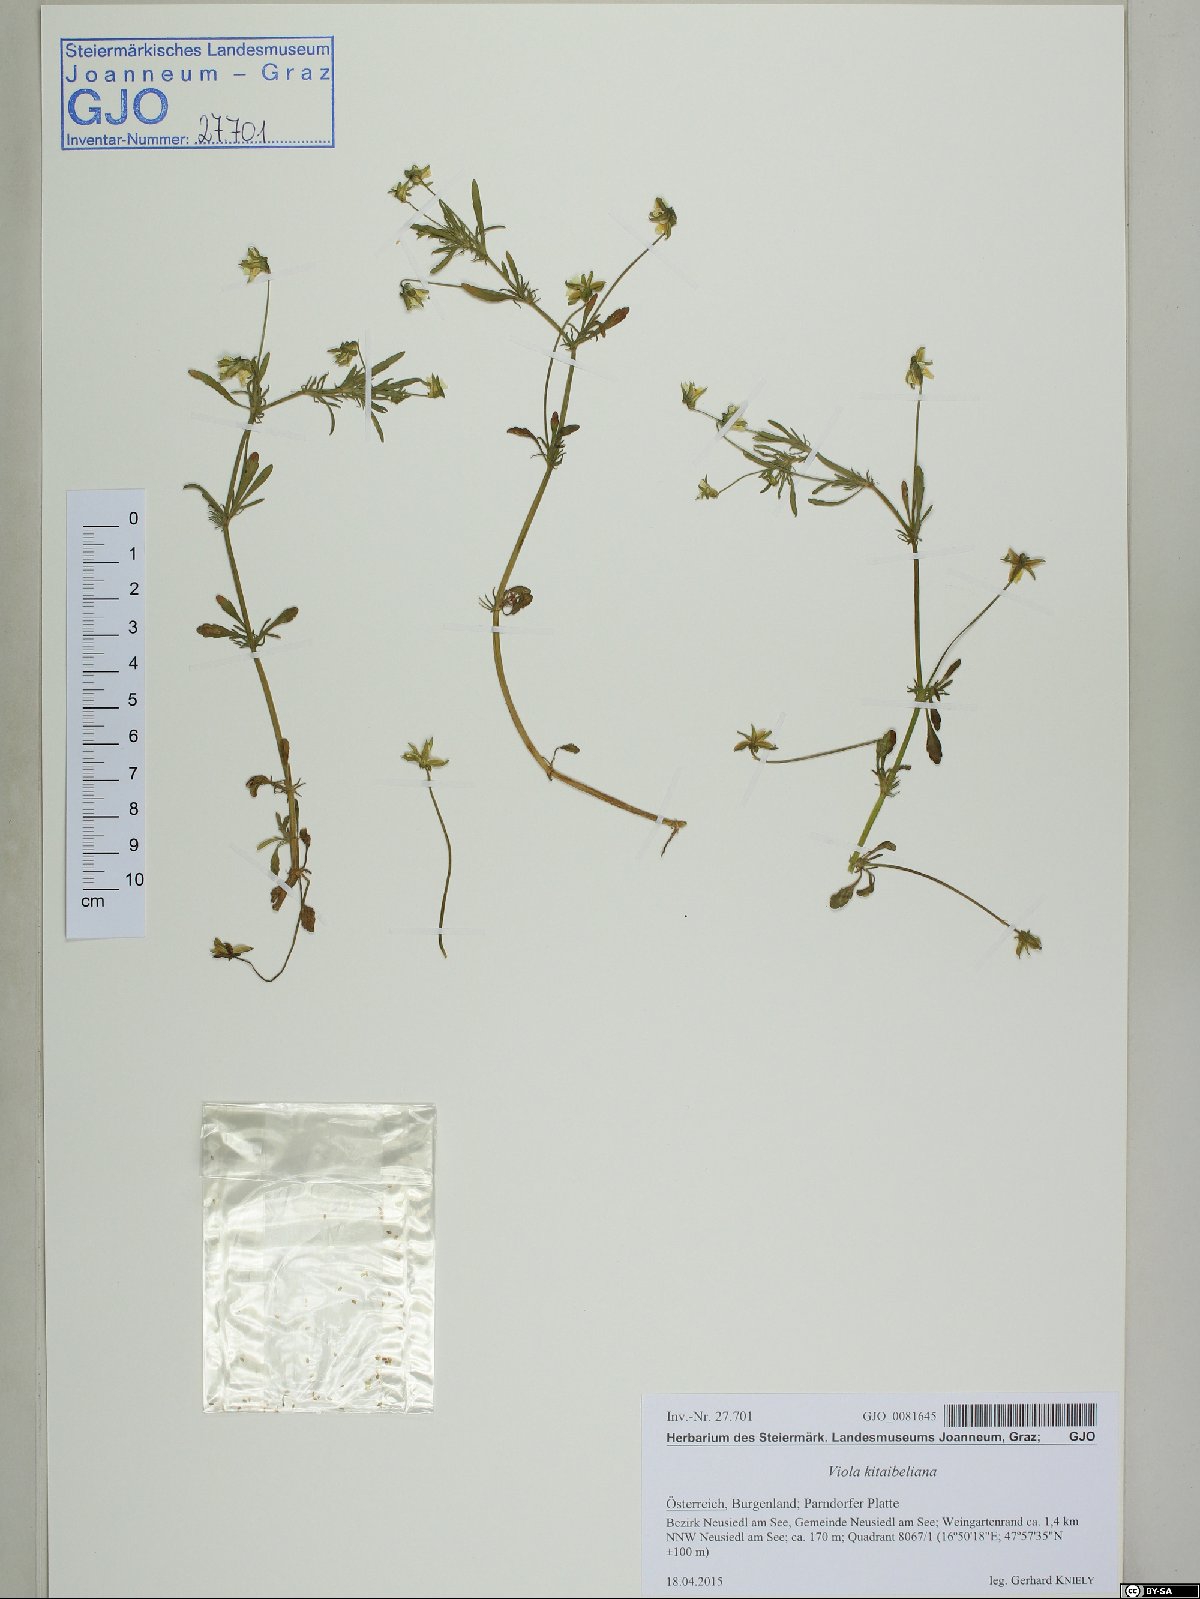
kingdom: Plantae
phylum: Tracheophyta
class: Magnoliopsida
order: Malpighiales
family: Violaceae
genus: Viola
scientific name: Viola kitaibeliana
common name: Dwarf pansy
